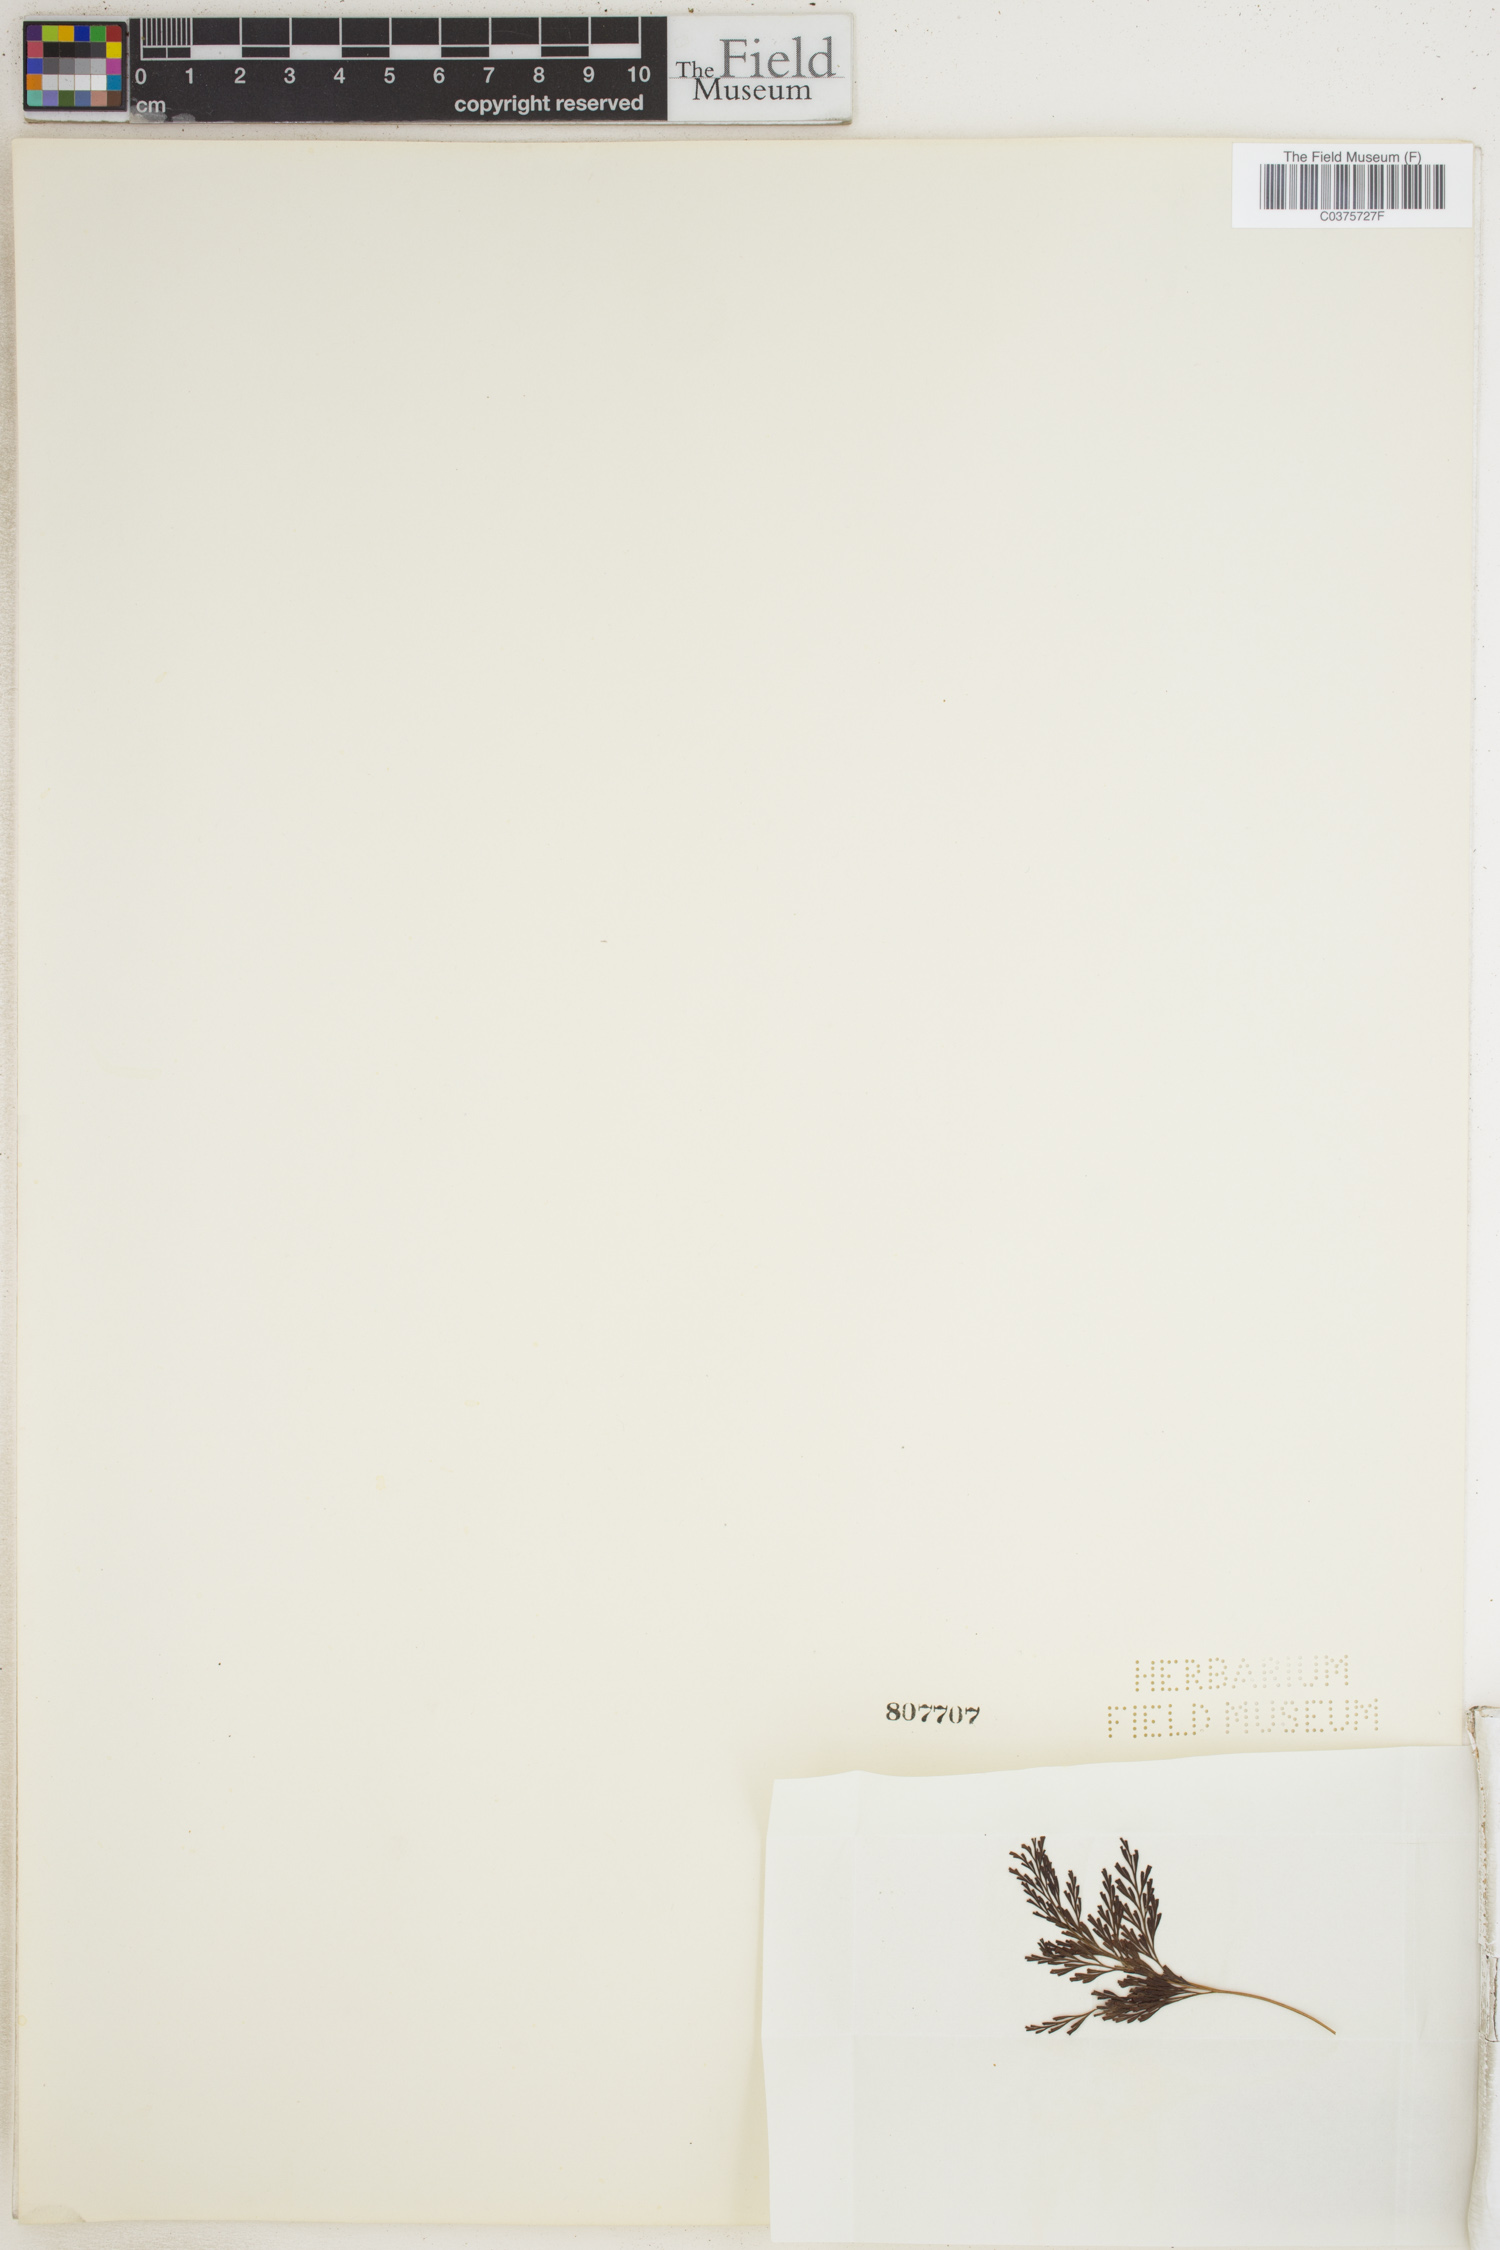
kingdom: Plantae
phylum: Tracheophyta
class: Polypodiopsida
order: Polypodiales
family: Lindsaeaceae
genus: Lindsaea
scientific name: Lindsaea
